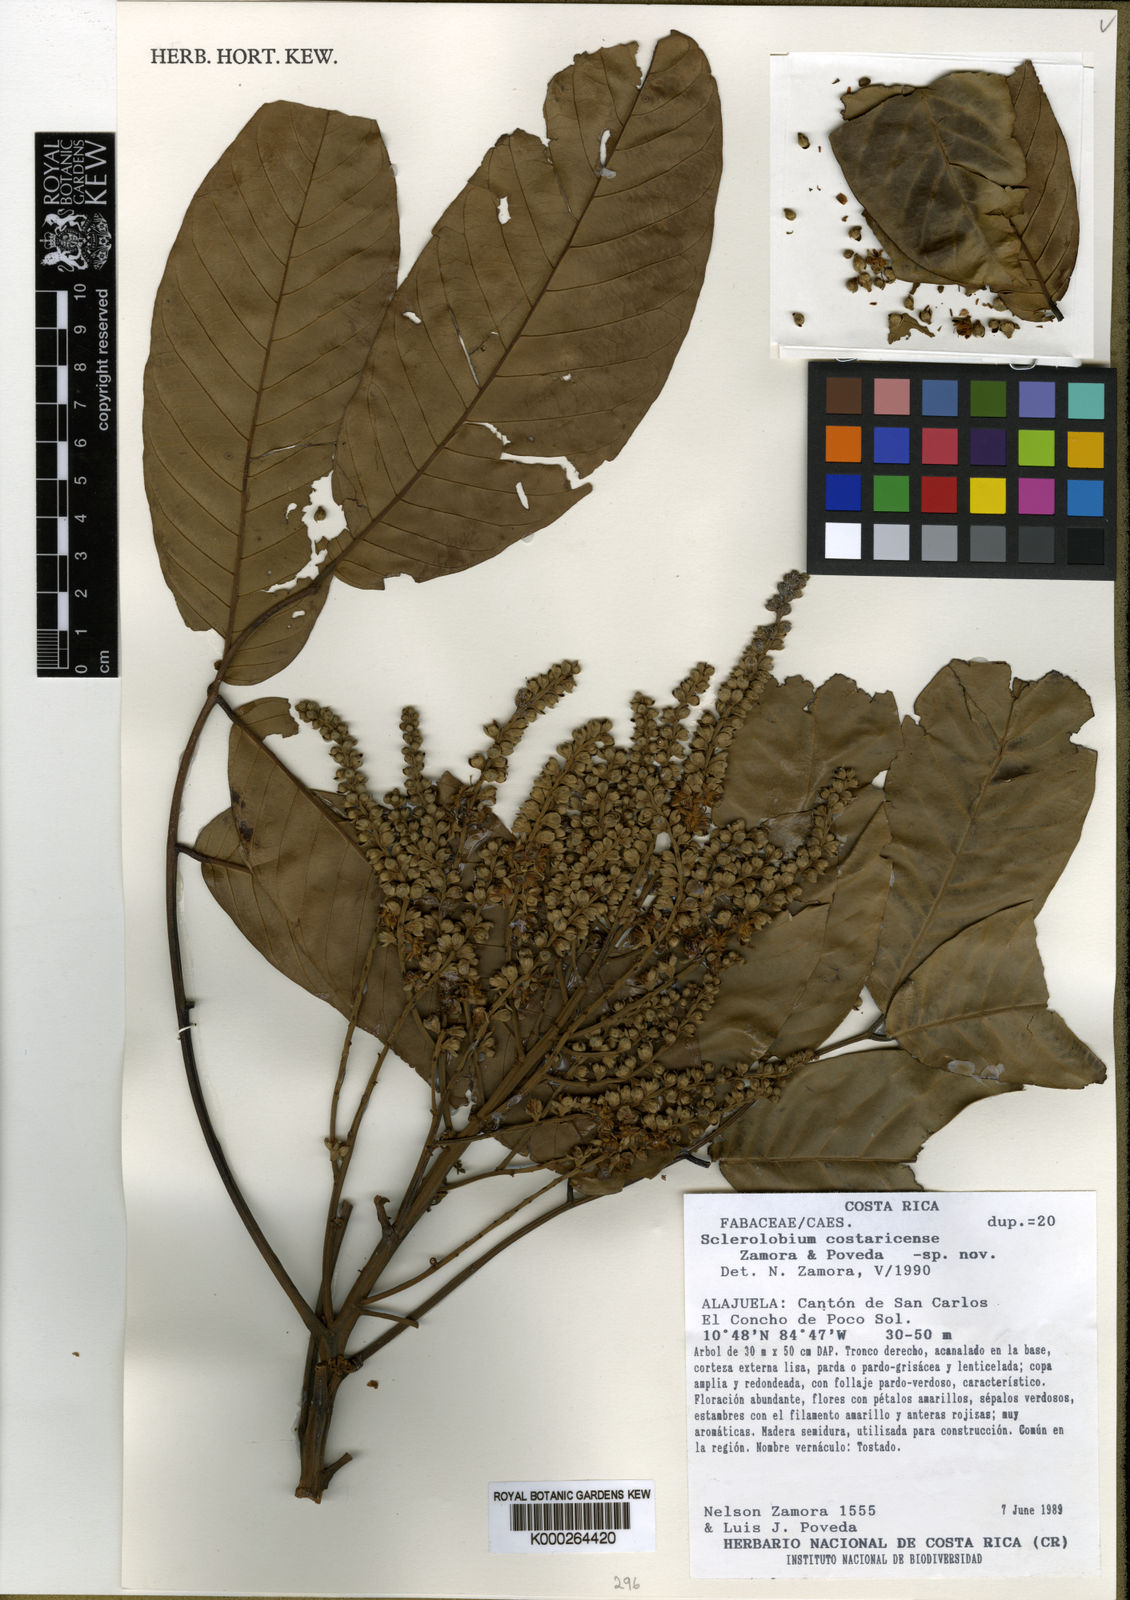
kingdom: Plantae
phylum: Tracheophyta
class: Magnoliopsida
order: Fabales
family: Fabaceae
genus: Tachigali
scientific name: Tachigali
